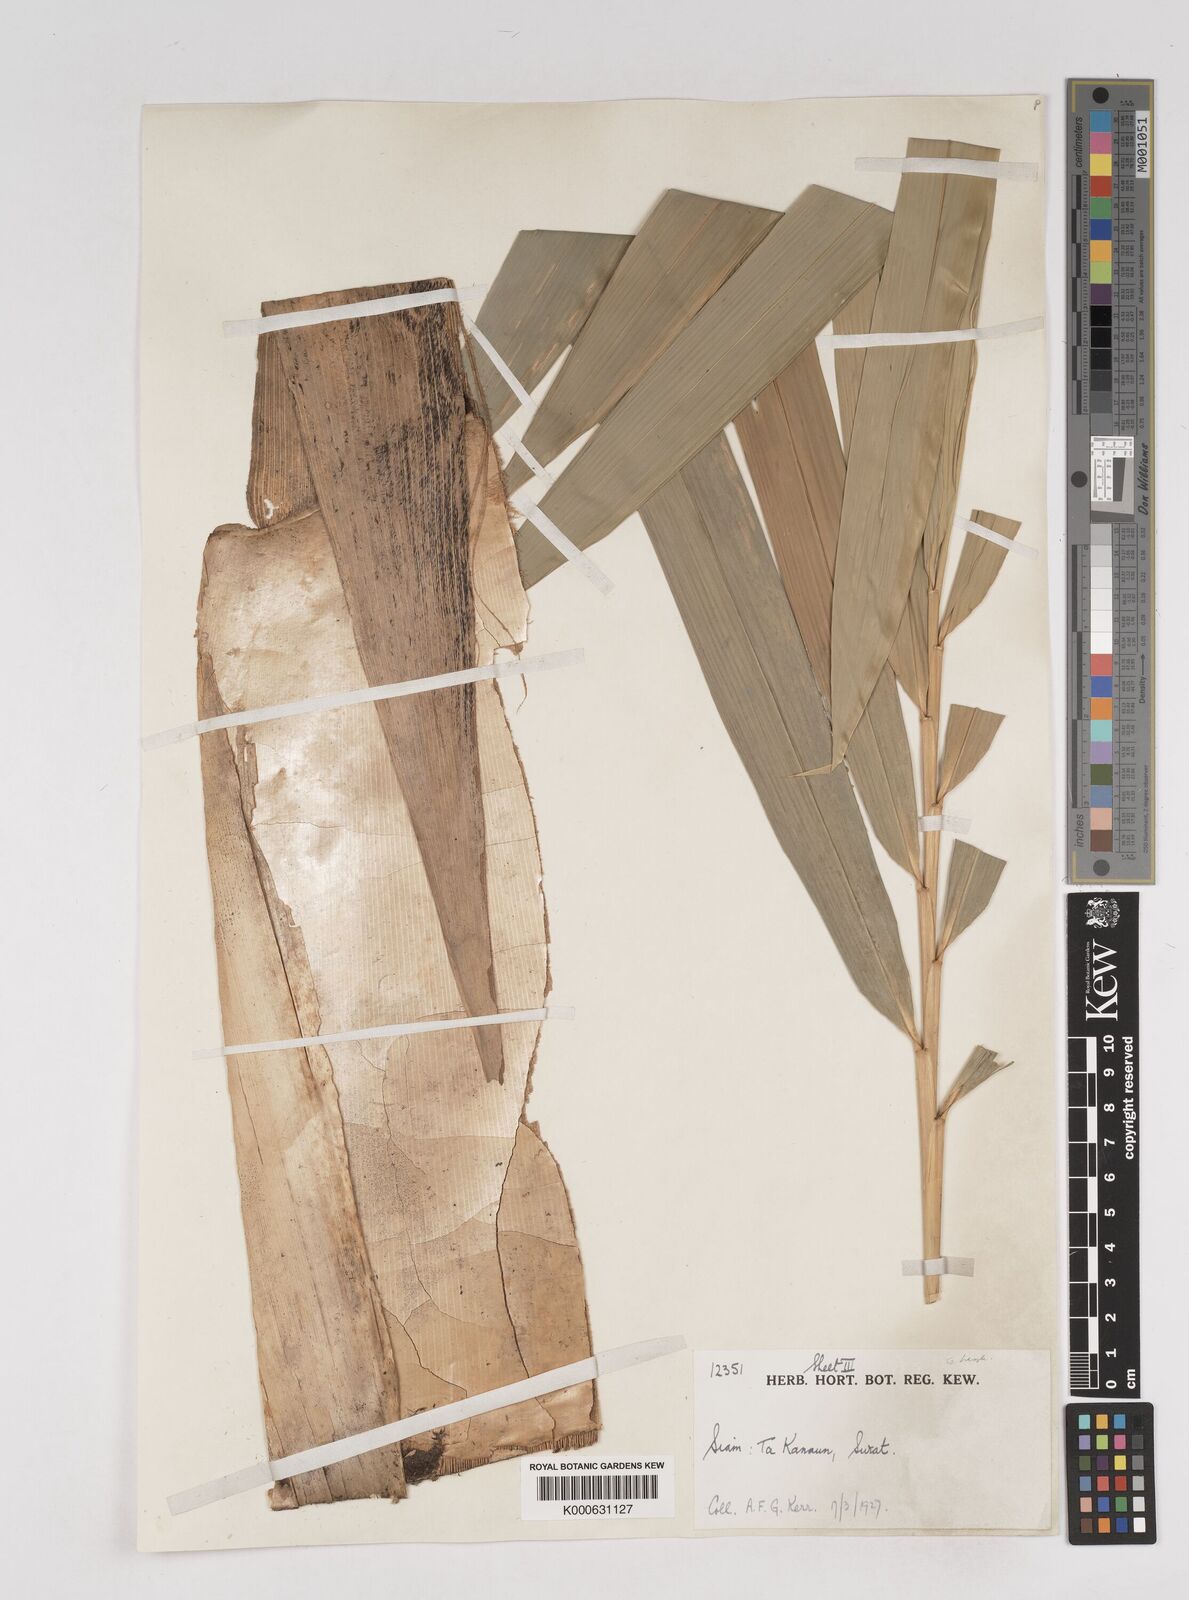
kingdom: Plantae
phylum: Tracheophyta
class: Liliopsida
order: Poales
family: Poaceae
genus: Gigantochloa
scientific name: Gigantochloa
